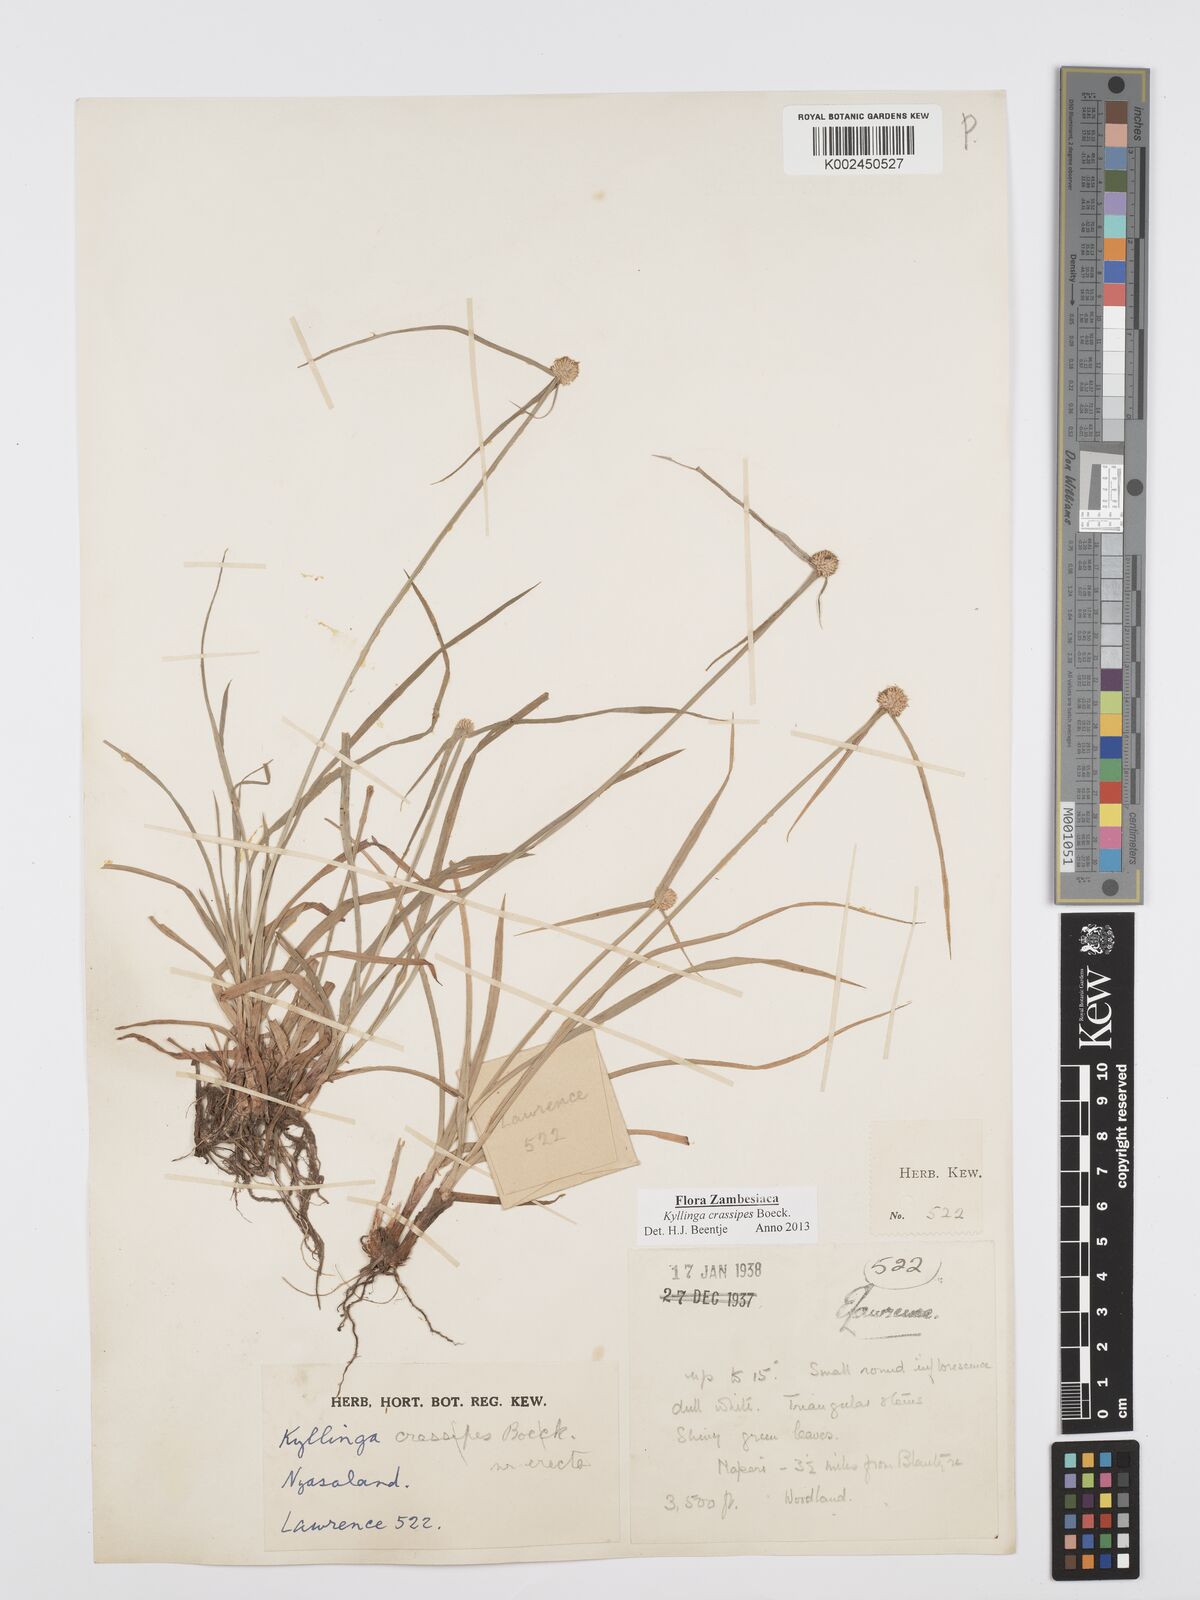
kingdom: Plantae
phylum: Tracheophyta
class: Liliopsida
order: Poales
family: Cyperaceae
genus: Cyperus
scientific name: Cyperus crassipes
